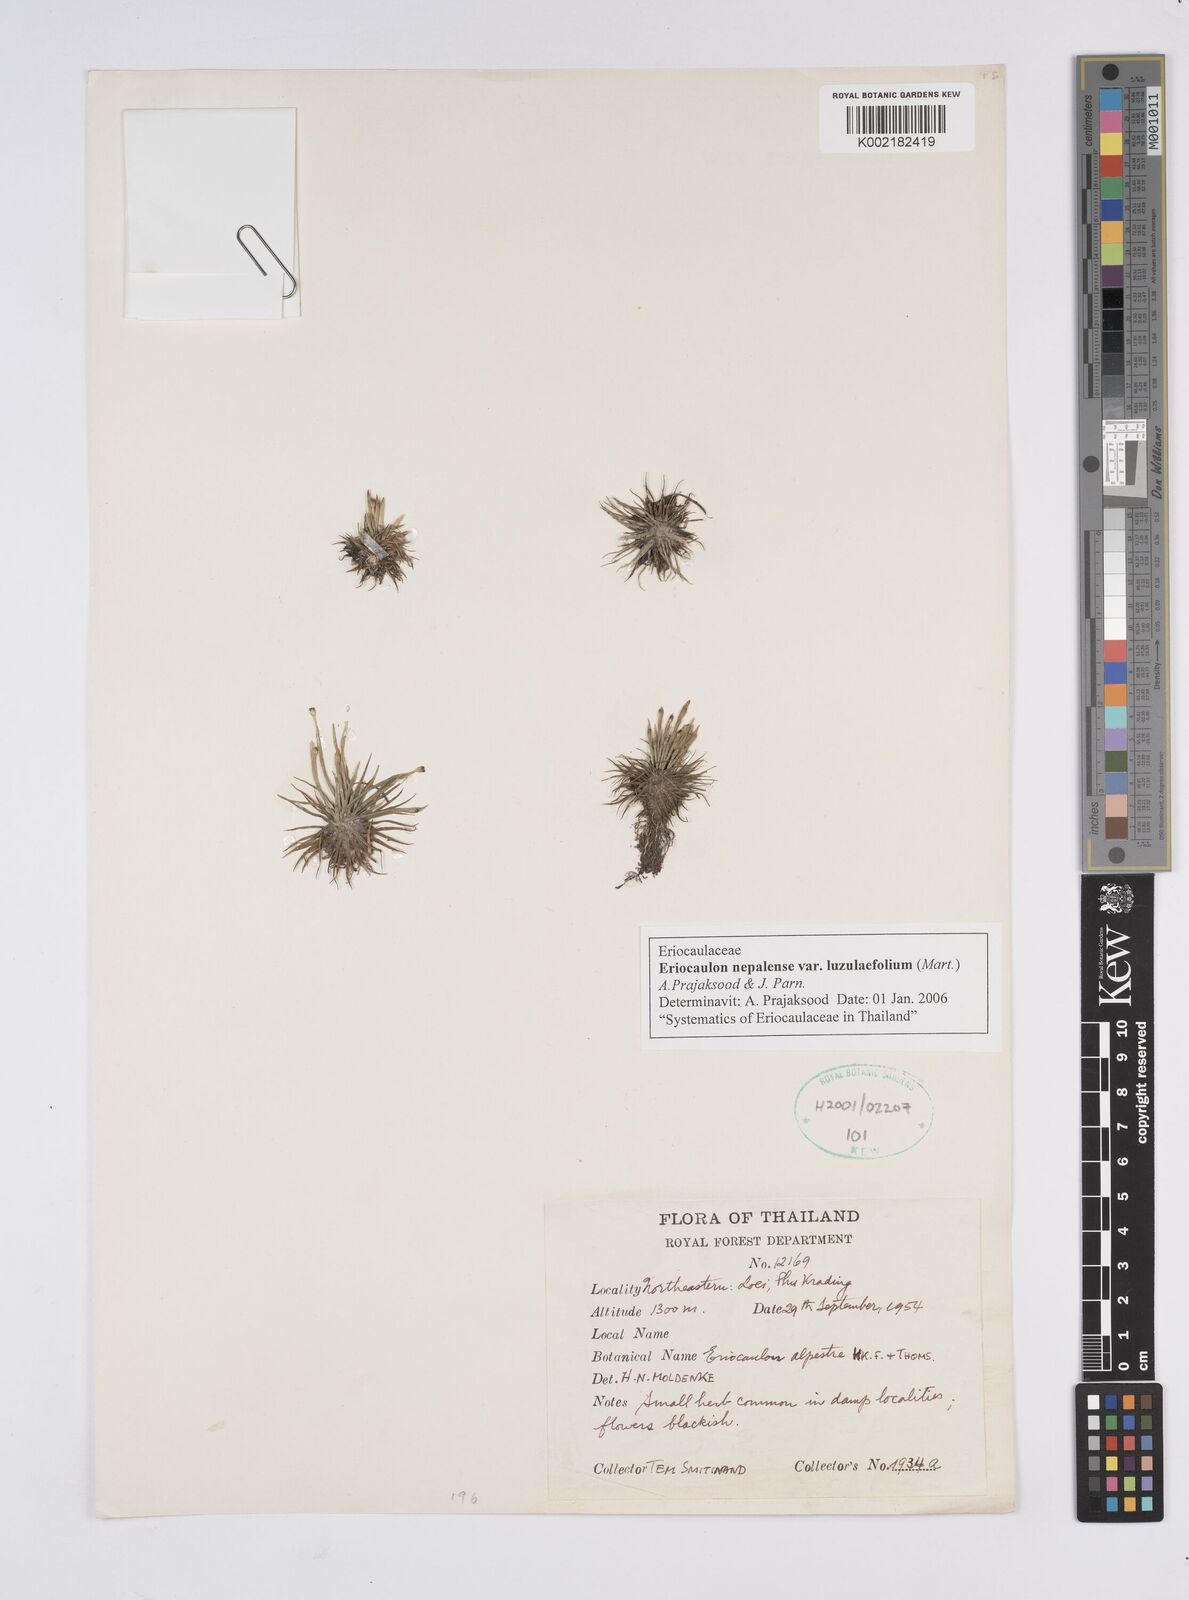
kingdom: Plantae
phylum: Tracheophyta
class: Liliopsida
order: Poales
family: Eriocaulaceae
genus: Eriocaulon
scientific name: Eriocaulon nepalense
